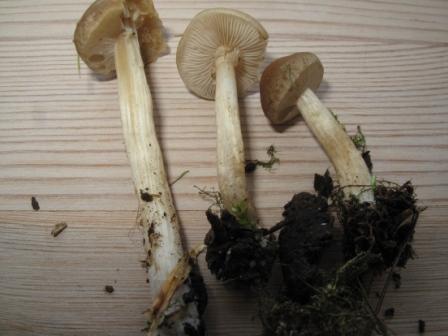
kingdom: Fungi
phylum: Basidiomycota
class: Agaricomycetes
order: Agaricales
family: Strophariaceae
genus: Agrocybe
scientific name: Agrocybe praecox
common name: tidlig agerhat
